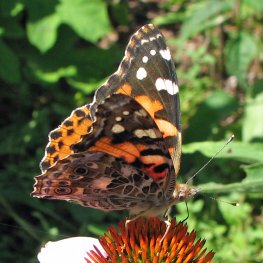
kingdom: Animalia
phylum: Arthropoda
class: Insecta
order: Lepidoptera
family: Nymphalidae
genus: Vanessa
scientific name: Vanessa cardui
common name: Painted Lady
